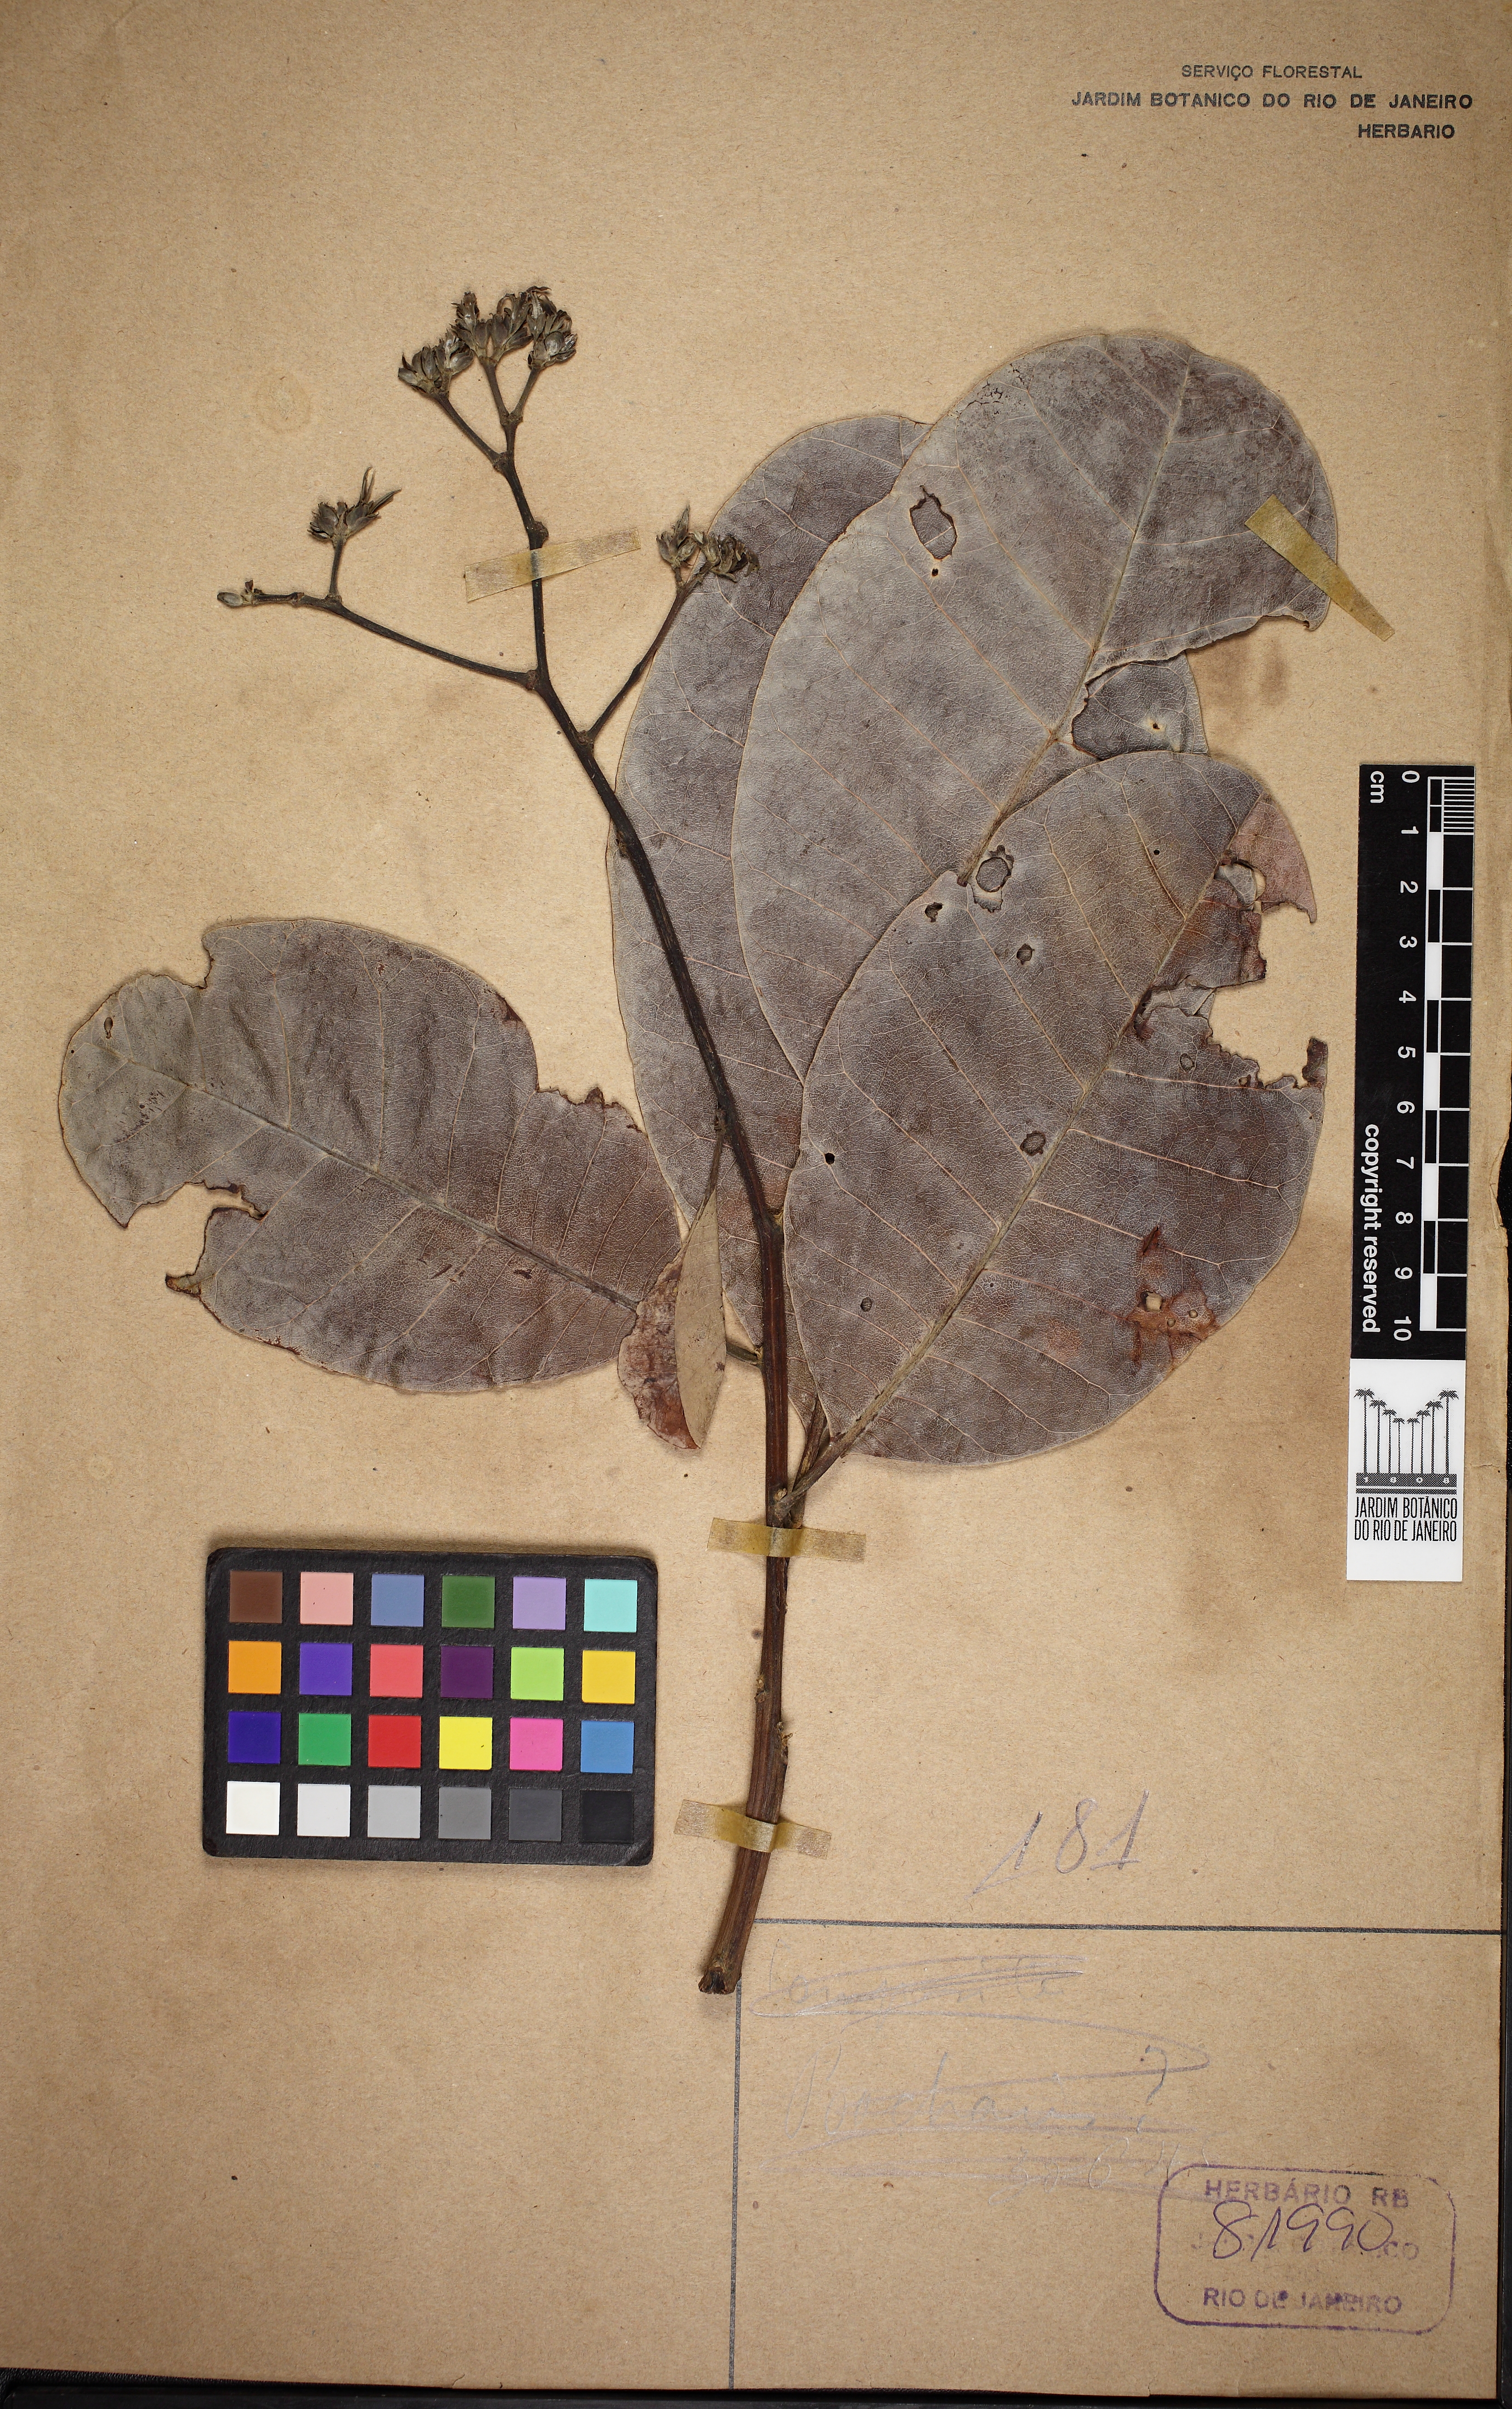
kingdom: Plantae
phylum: Tracheophyta
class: Magnoliopsida
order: Sapindales
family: Anacardiaceae
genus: Anacardium
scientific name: Anacardium occidentale
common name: Cashew
